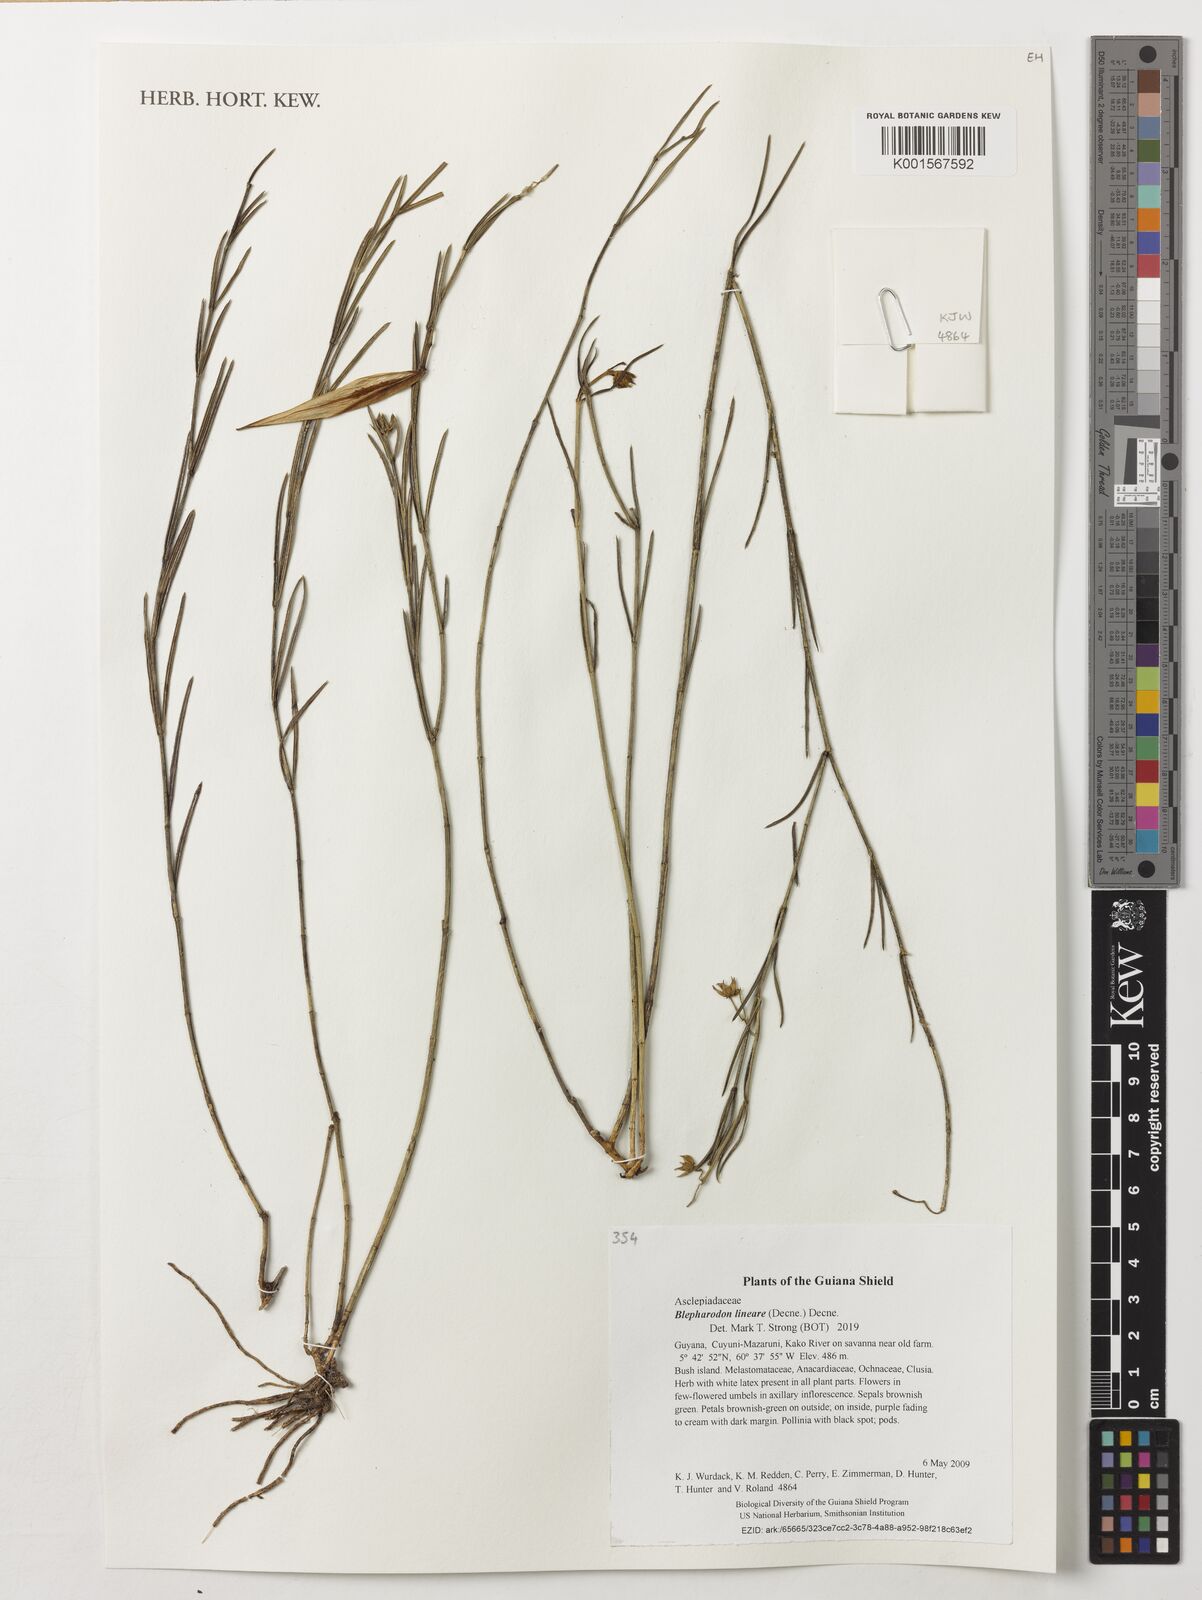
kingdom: Plantae
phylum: Tracheophyta
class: Magnoliopsida
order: Gentianales
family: Apocynaceae
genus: Blepharodon
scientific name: Blepharodon lineare
